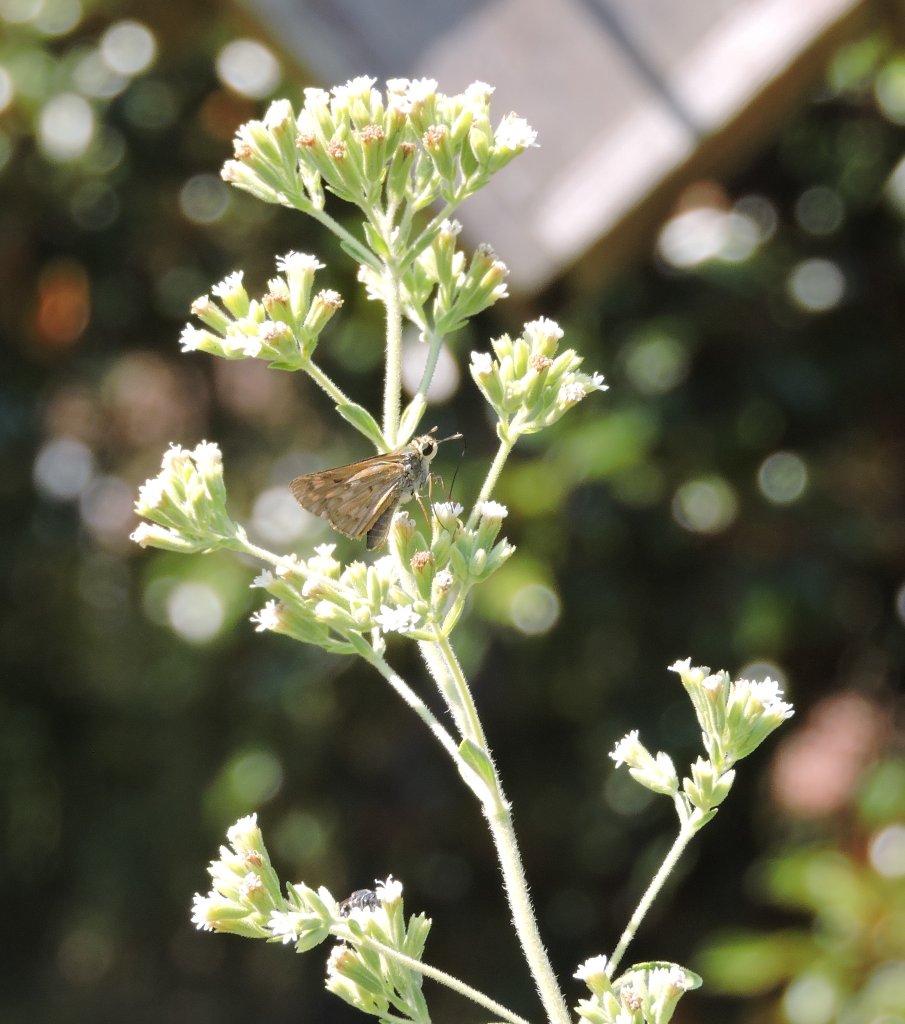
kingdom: Animalia
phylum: Arthropoda
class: Insecta
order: Lepidoptera
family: Hesperiidae
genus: Hylephila
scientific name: Hylephila phyleus
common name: Fiery Skipper
